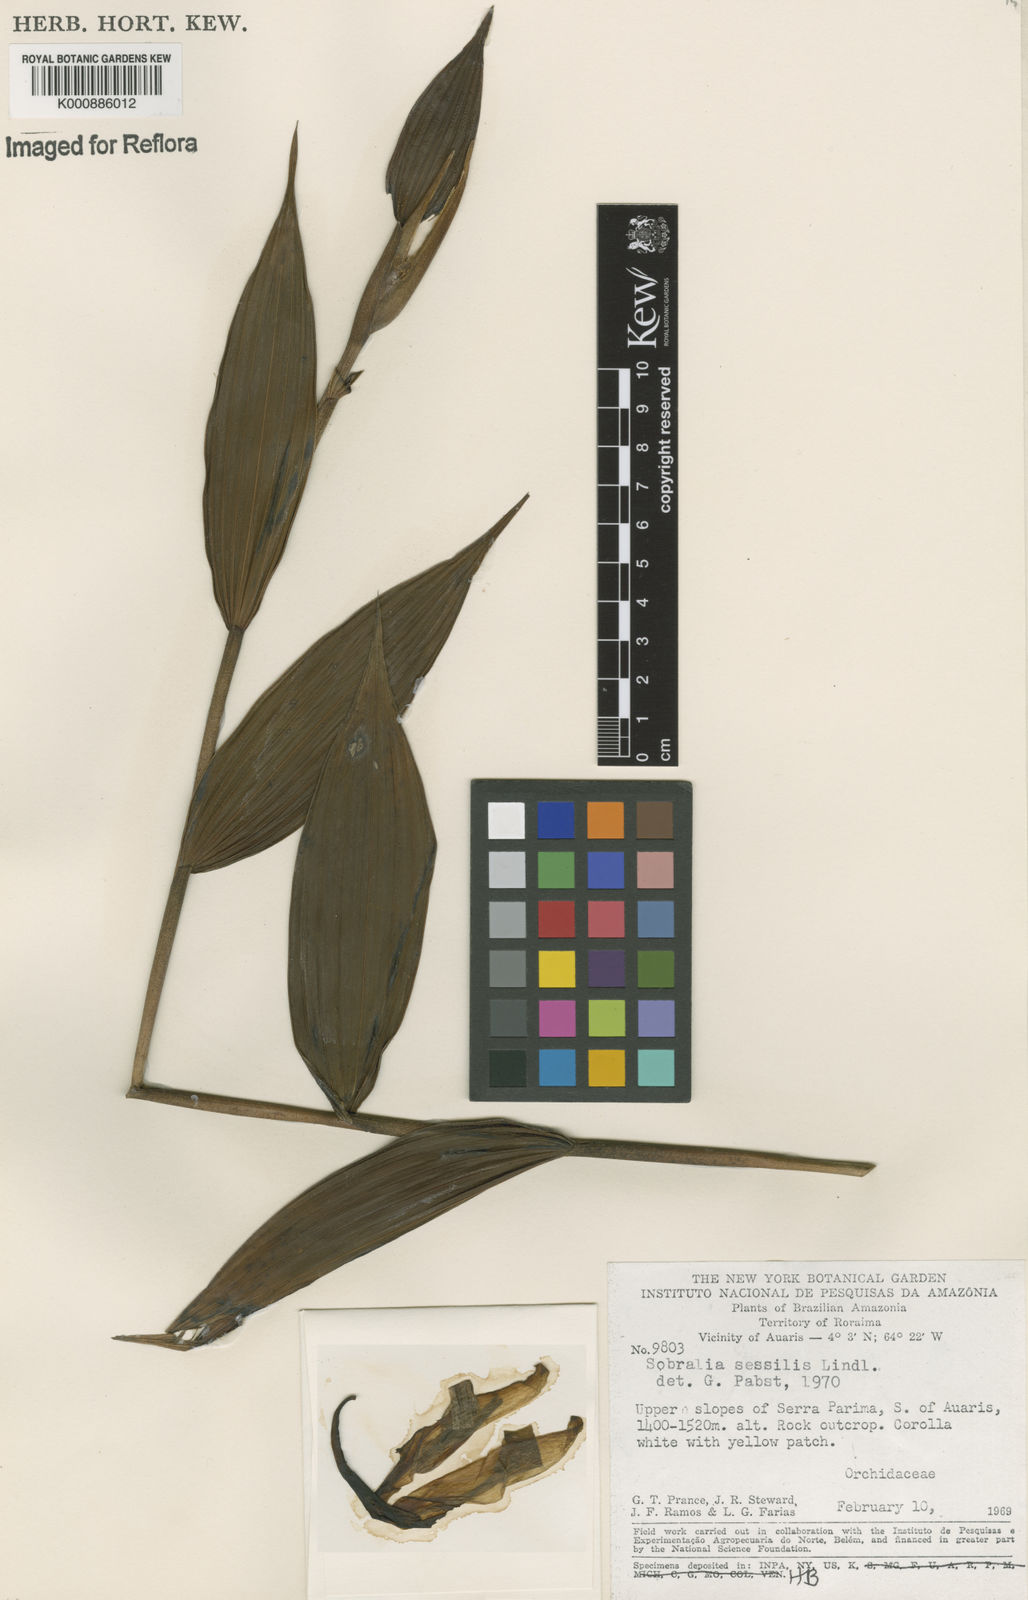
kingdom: Plantae
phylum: Tracheophyta
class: Liliopsida
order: Asparagales
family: Orchidaceae
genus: Sobralia
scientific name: Sobralia sessilis
